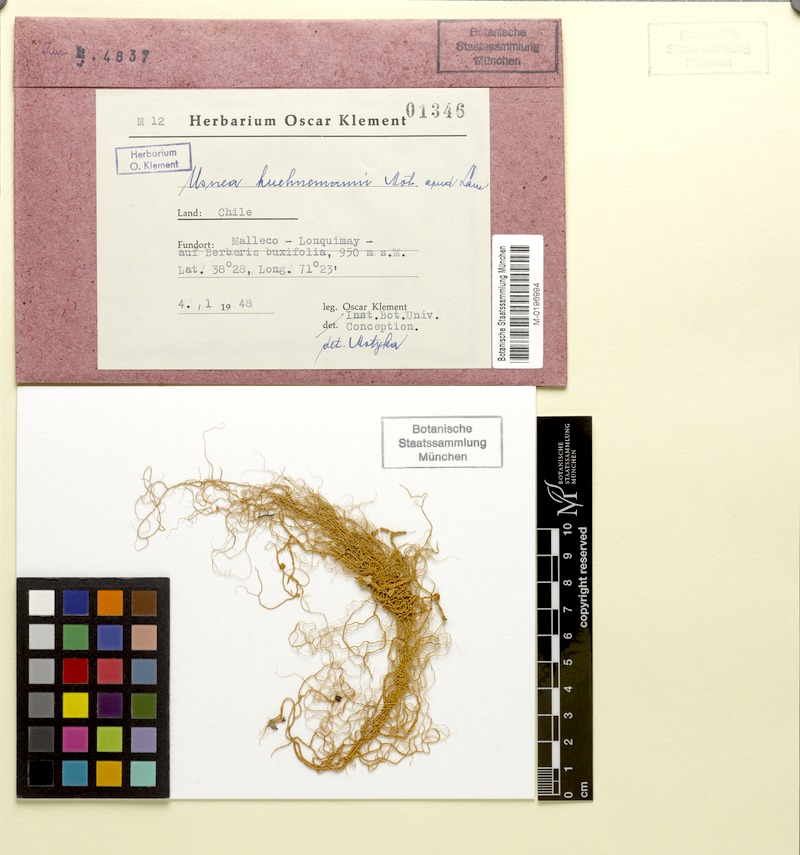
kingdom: Fungi
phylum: Ascomycota
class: Lecanoromycetes
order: Lecanorales
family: Parmeliaceae
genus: Usnea
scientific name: Usnea
